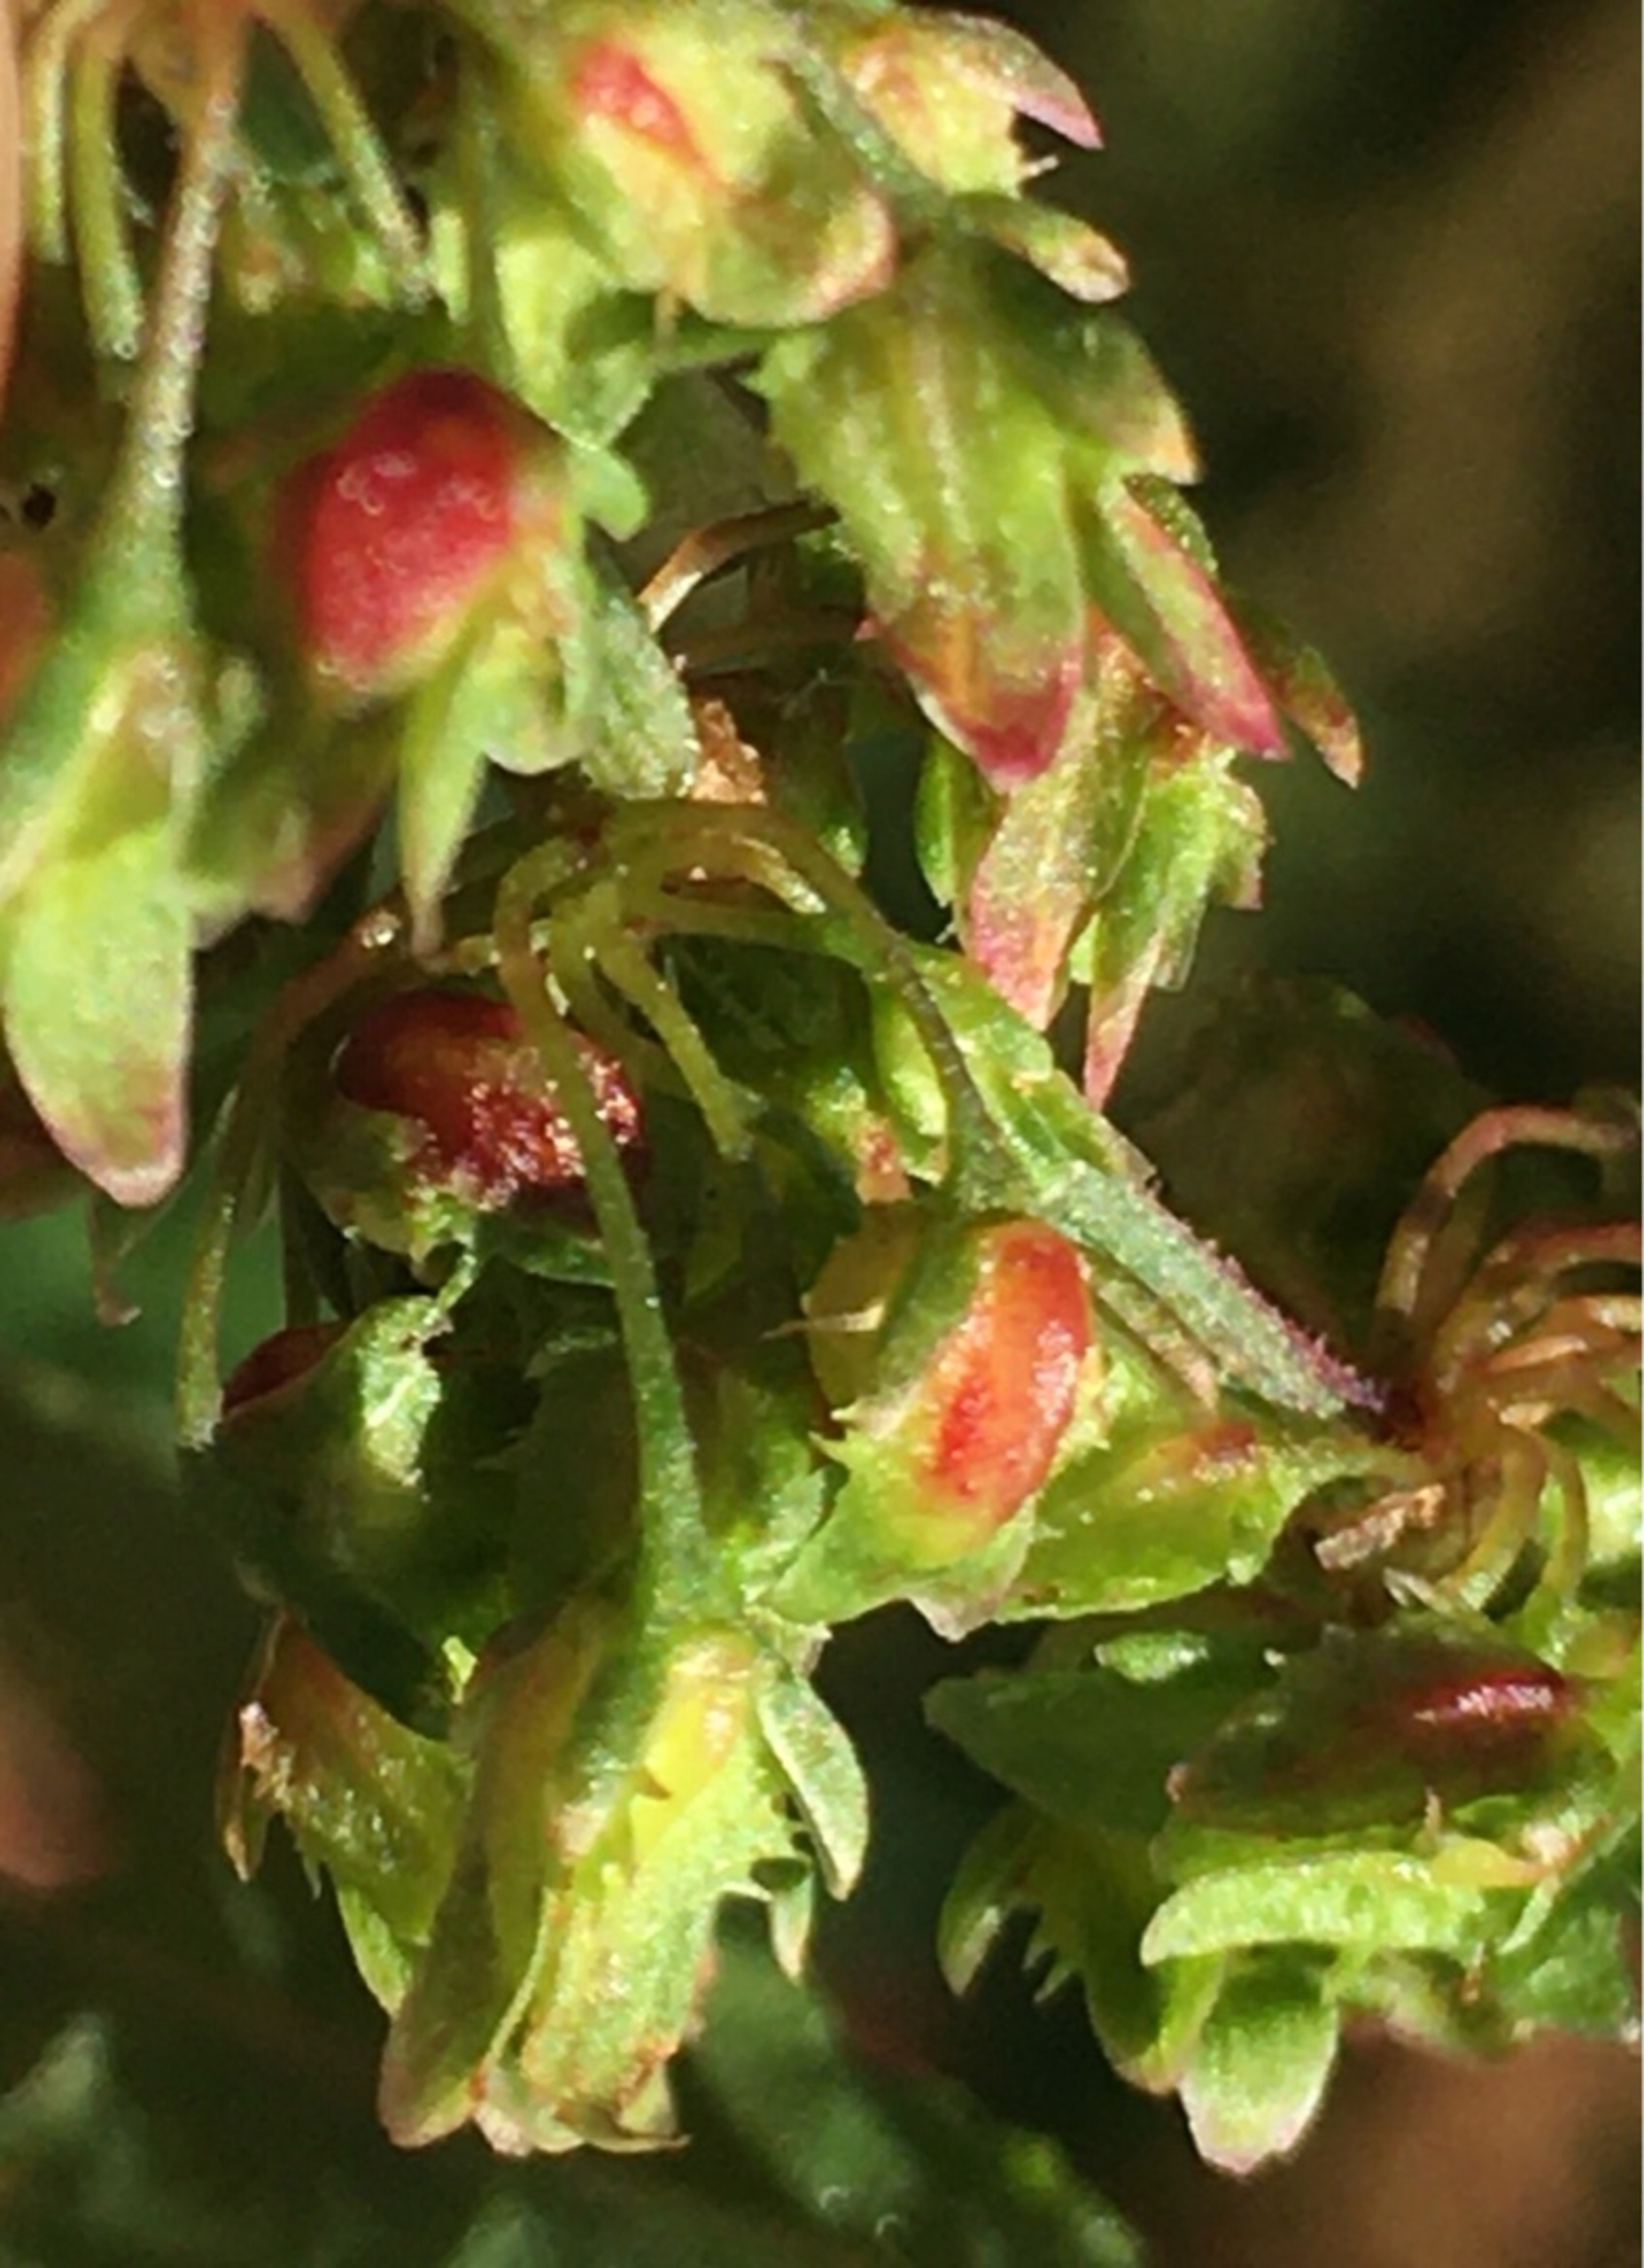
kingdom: Animalia
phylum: Arthropoda
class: Insecta
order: Diptera
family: Cecidomyiidae
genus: Contarinia
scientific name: Contarinia rumicis
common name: Skræppegalmyg
